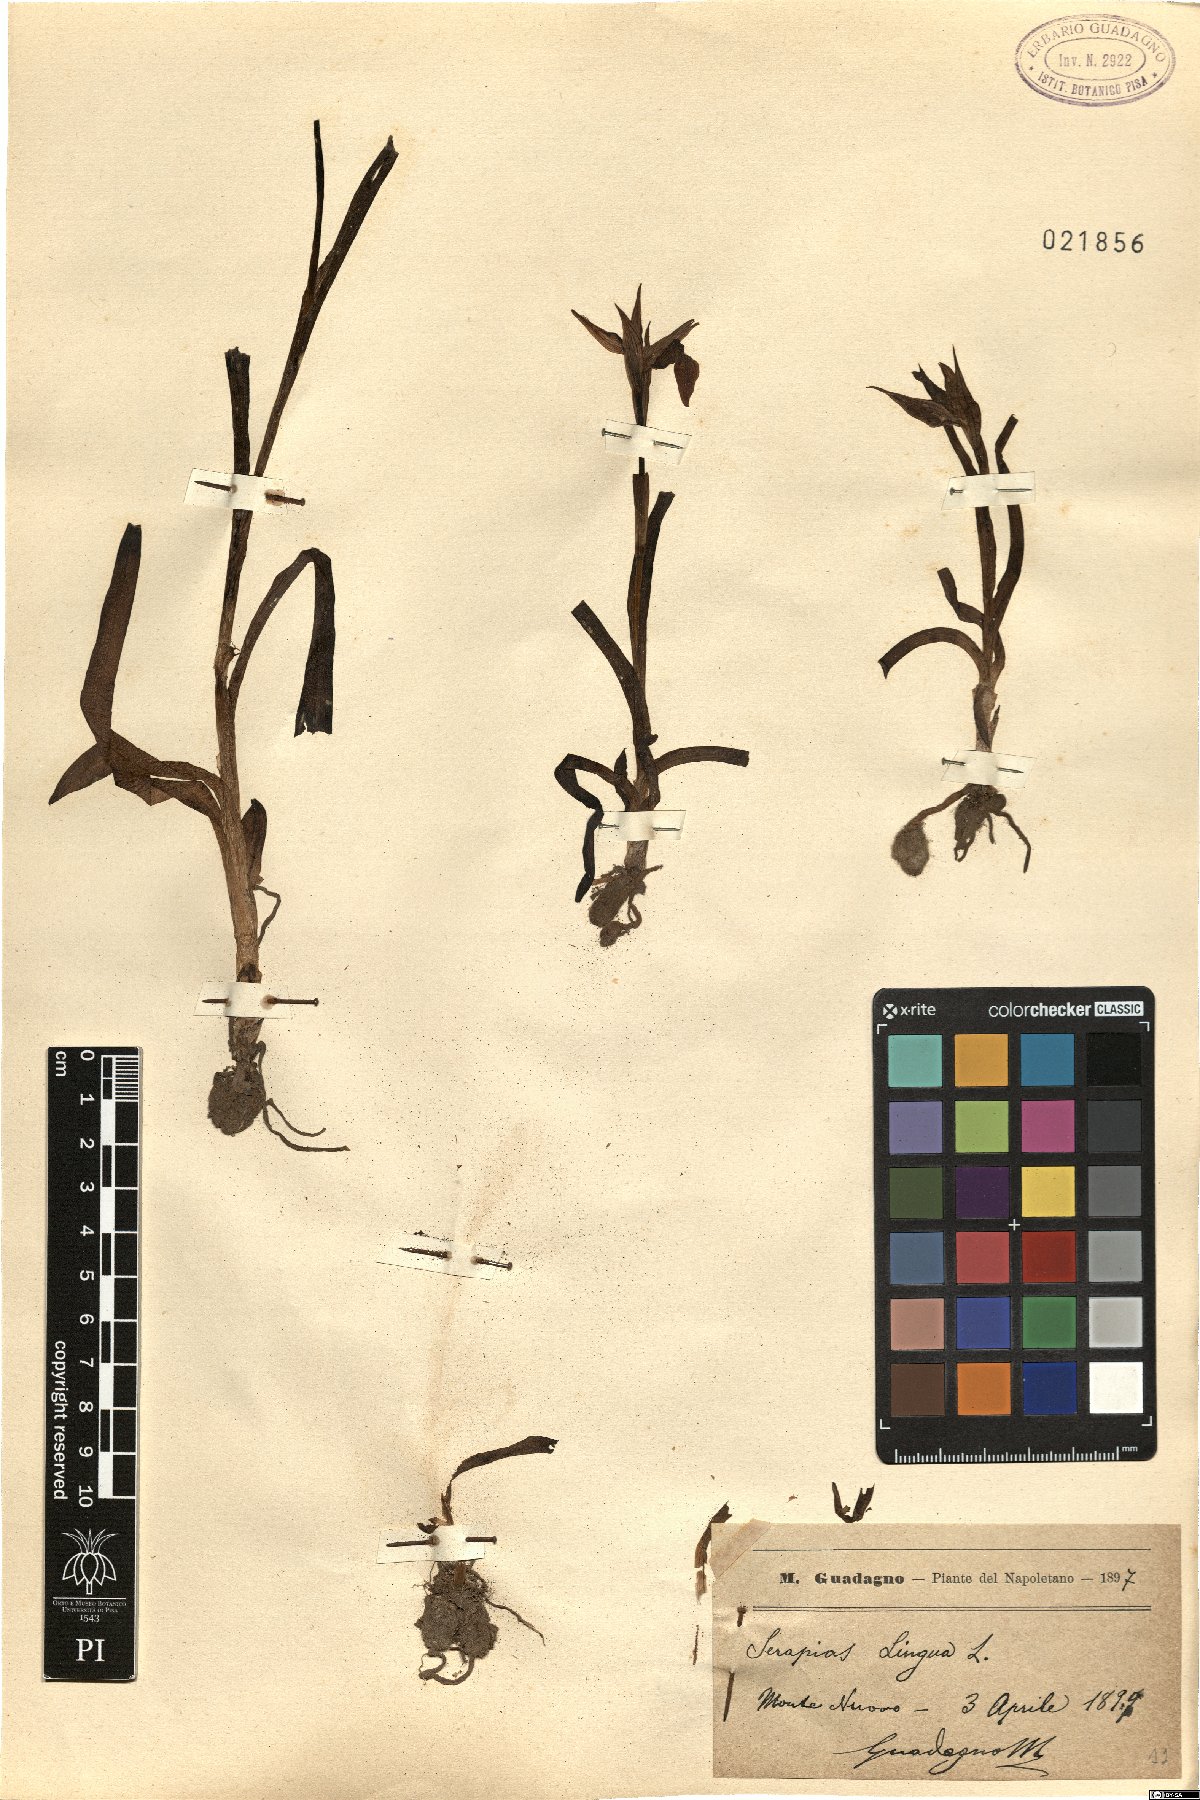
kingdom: Plantae
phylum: Tracheophyta
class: Liliopsida
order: Asparagales
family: Orchidaceae
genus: Serapias
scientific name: Serapias lingua
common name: Tongue-orchid
